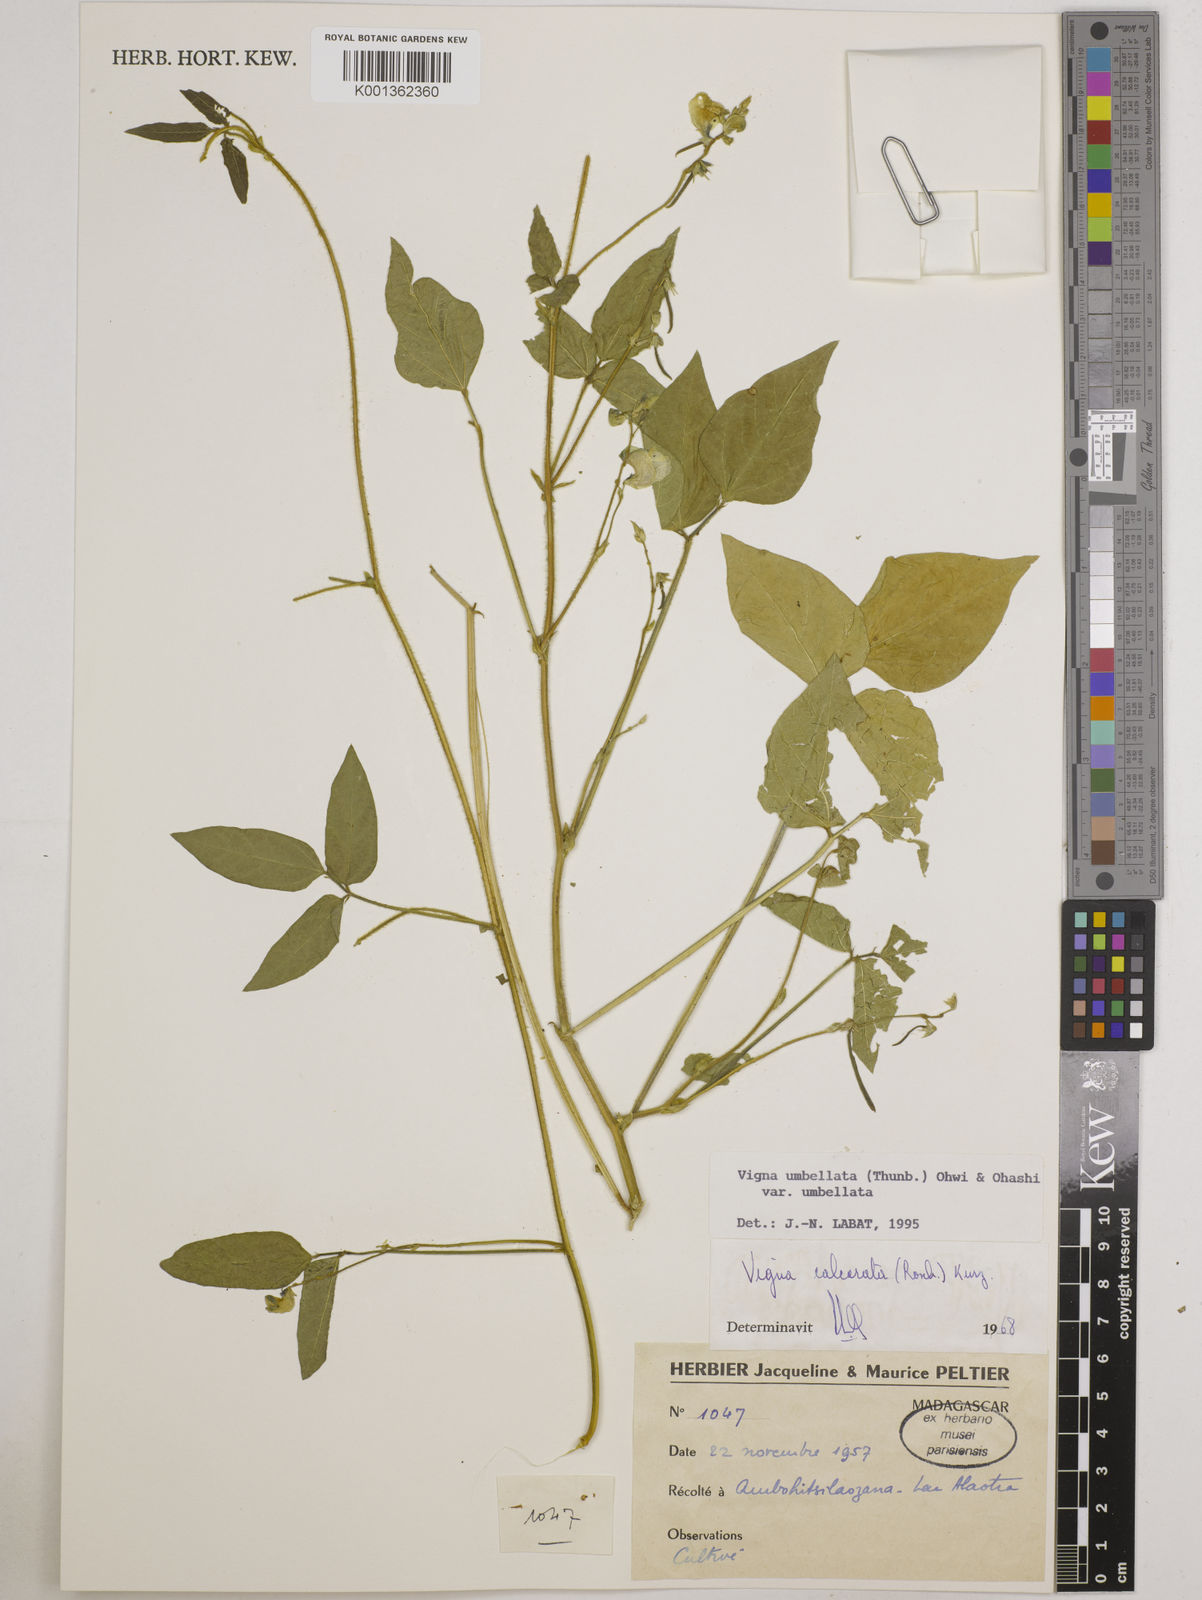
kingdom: Plantae
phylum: Tracheophyta
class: Magnoliopsida
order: Fabales
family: Fabaceae
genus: Vigna
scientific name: Vigna
